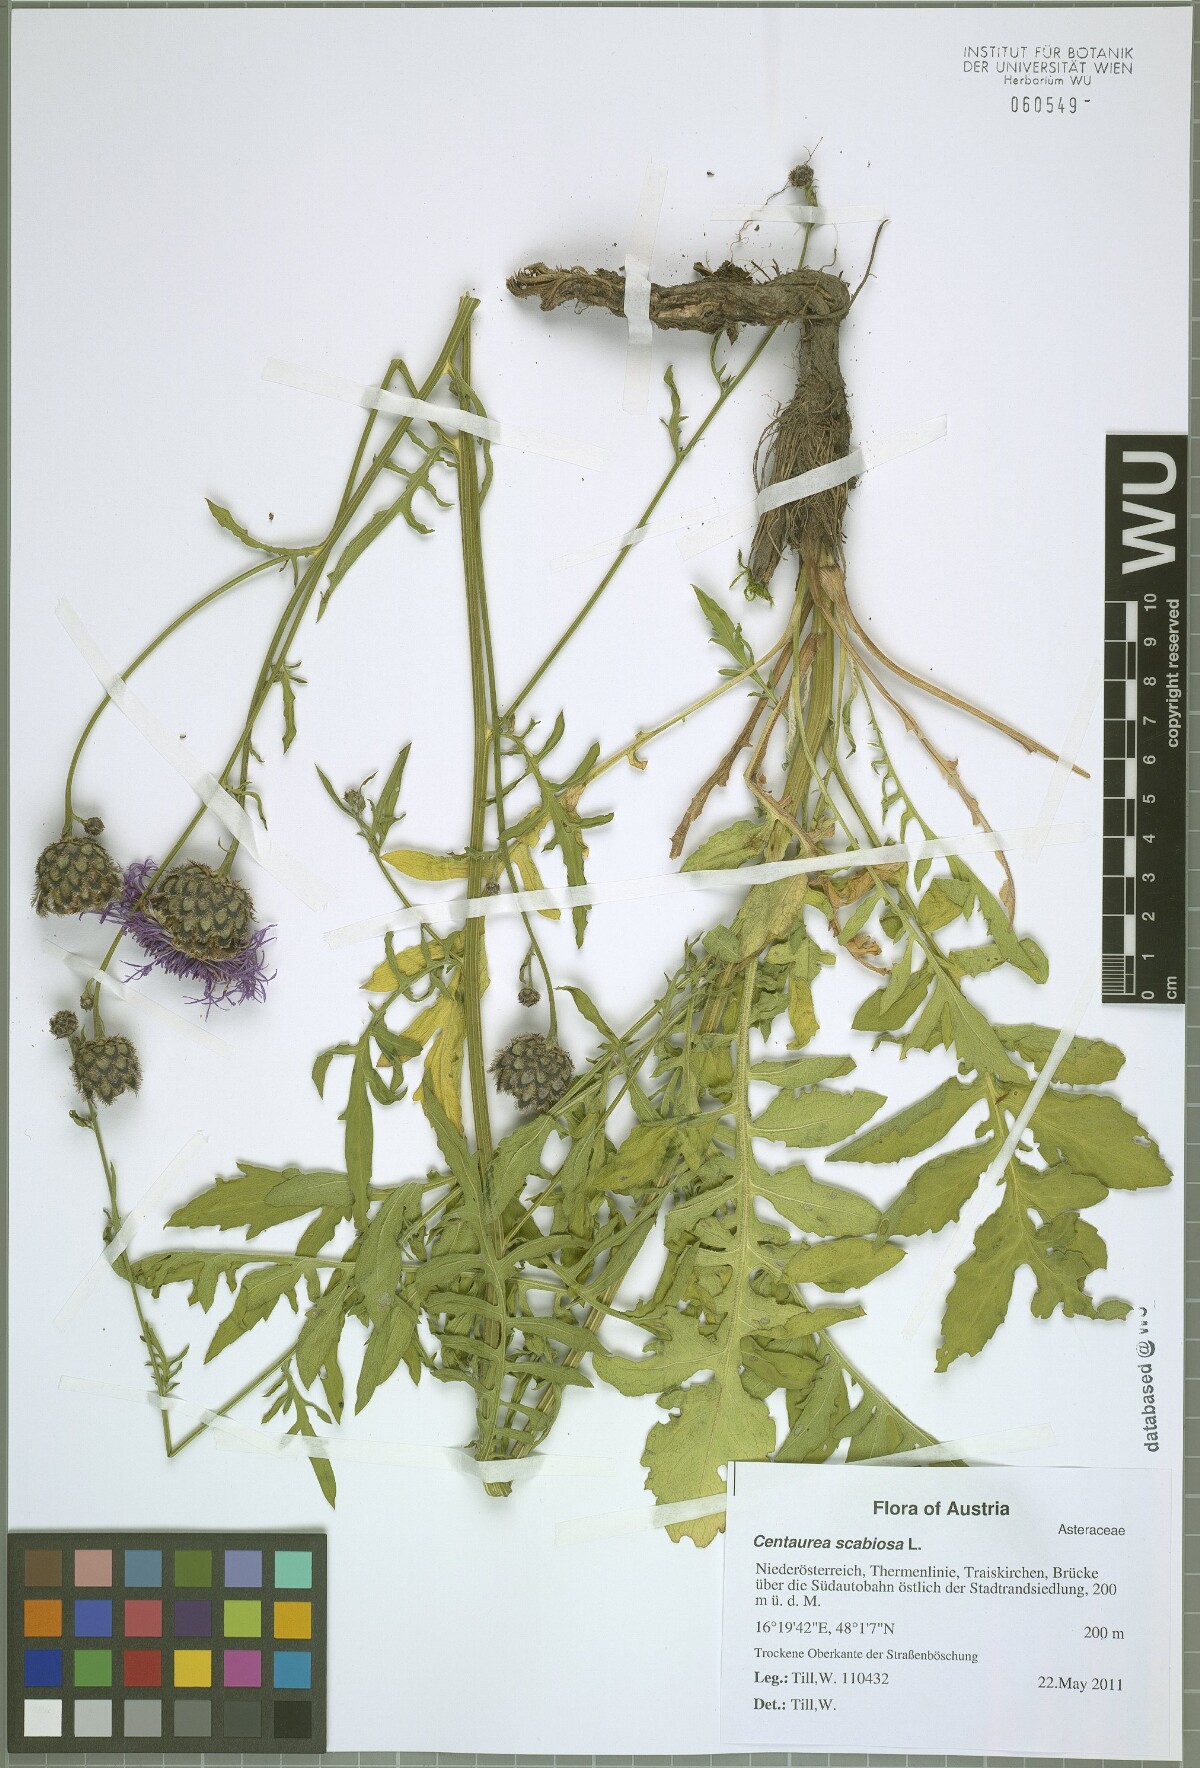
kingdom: Plantae
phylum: Tracheophyta
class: Magnoliopsida
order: Asterales
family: Asteraceae
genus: Centaurea
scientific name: Centaurea scabiosa
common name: Greater knapweed
